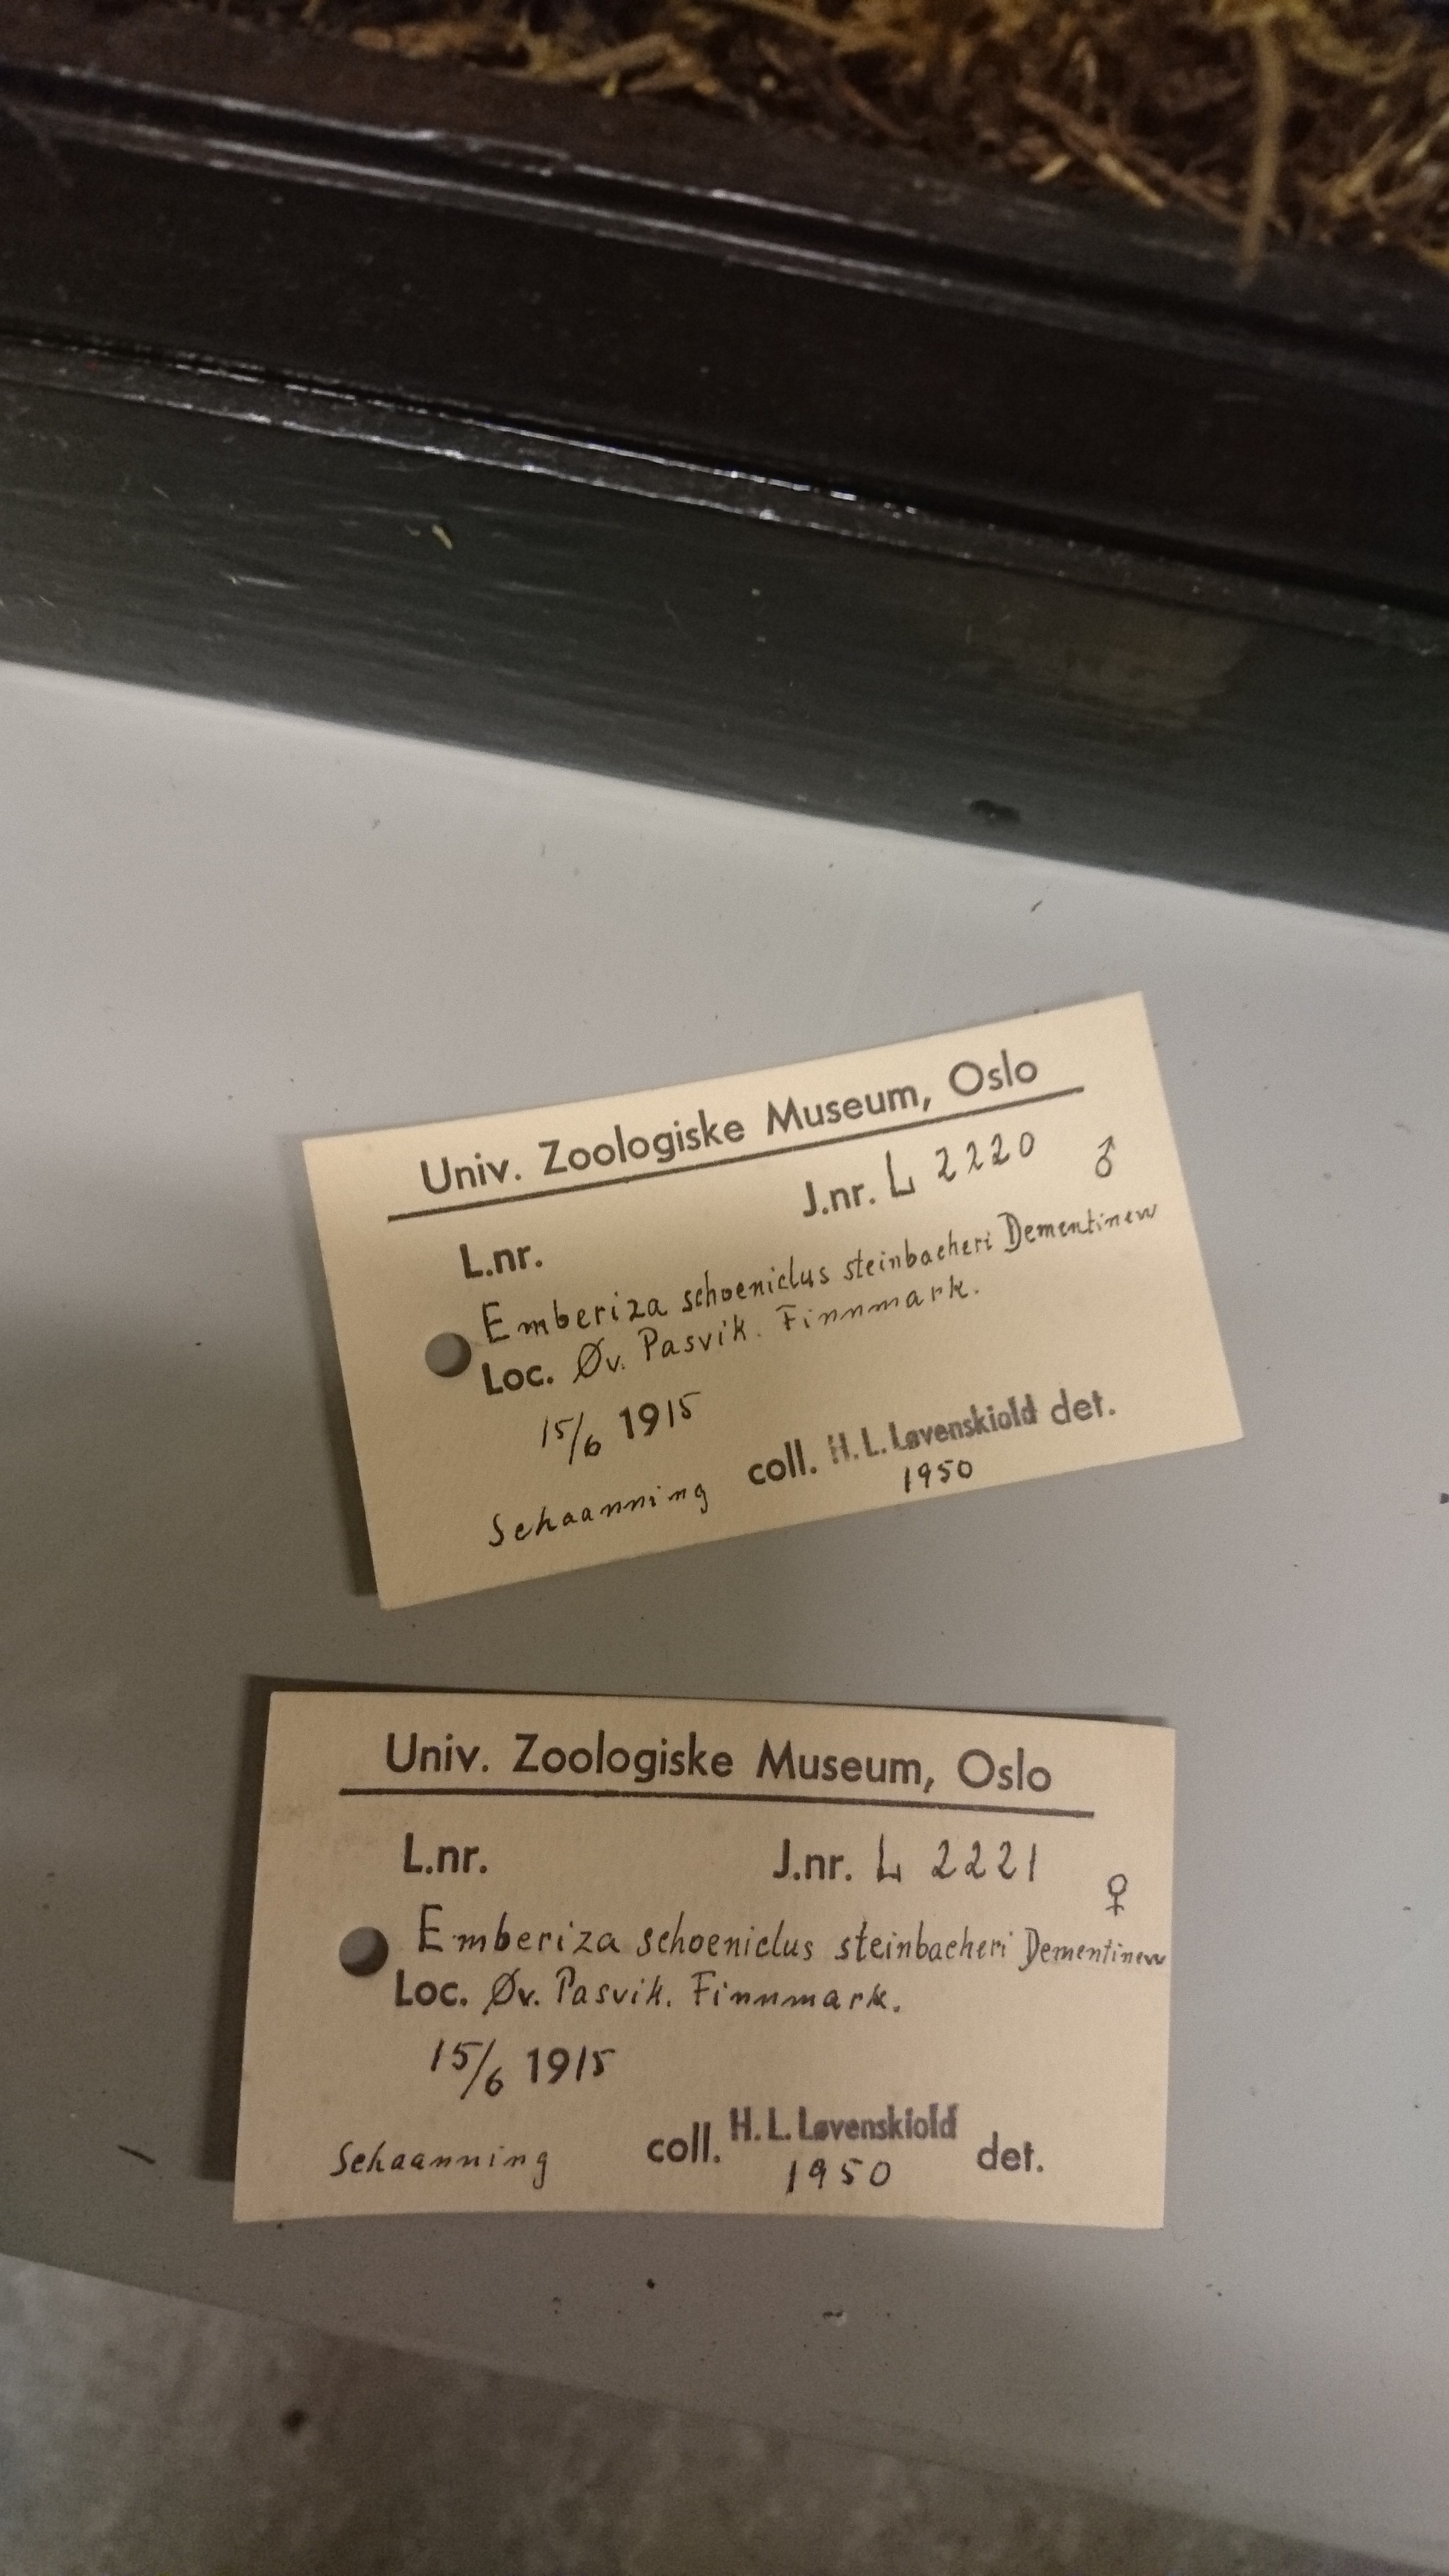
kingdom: Animalia
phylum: Chordata
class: Aves
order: Passeriformes
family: Emberizidae
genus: Emberiza
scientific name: Emberiza schoeniclus
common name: Reed bunting
